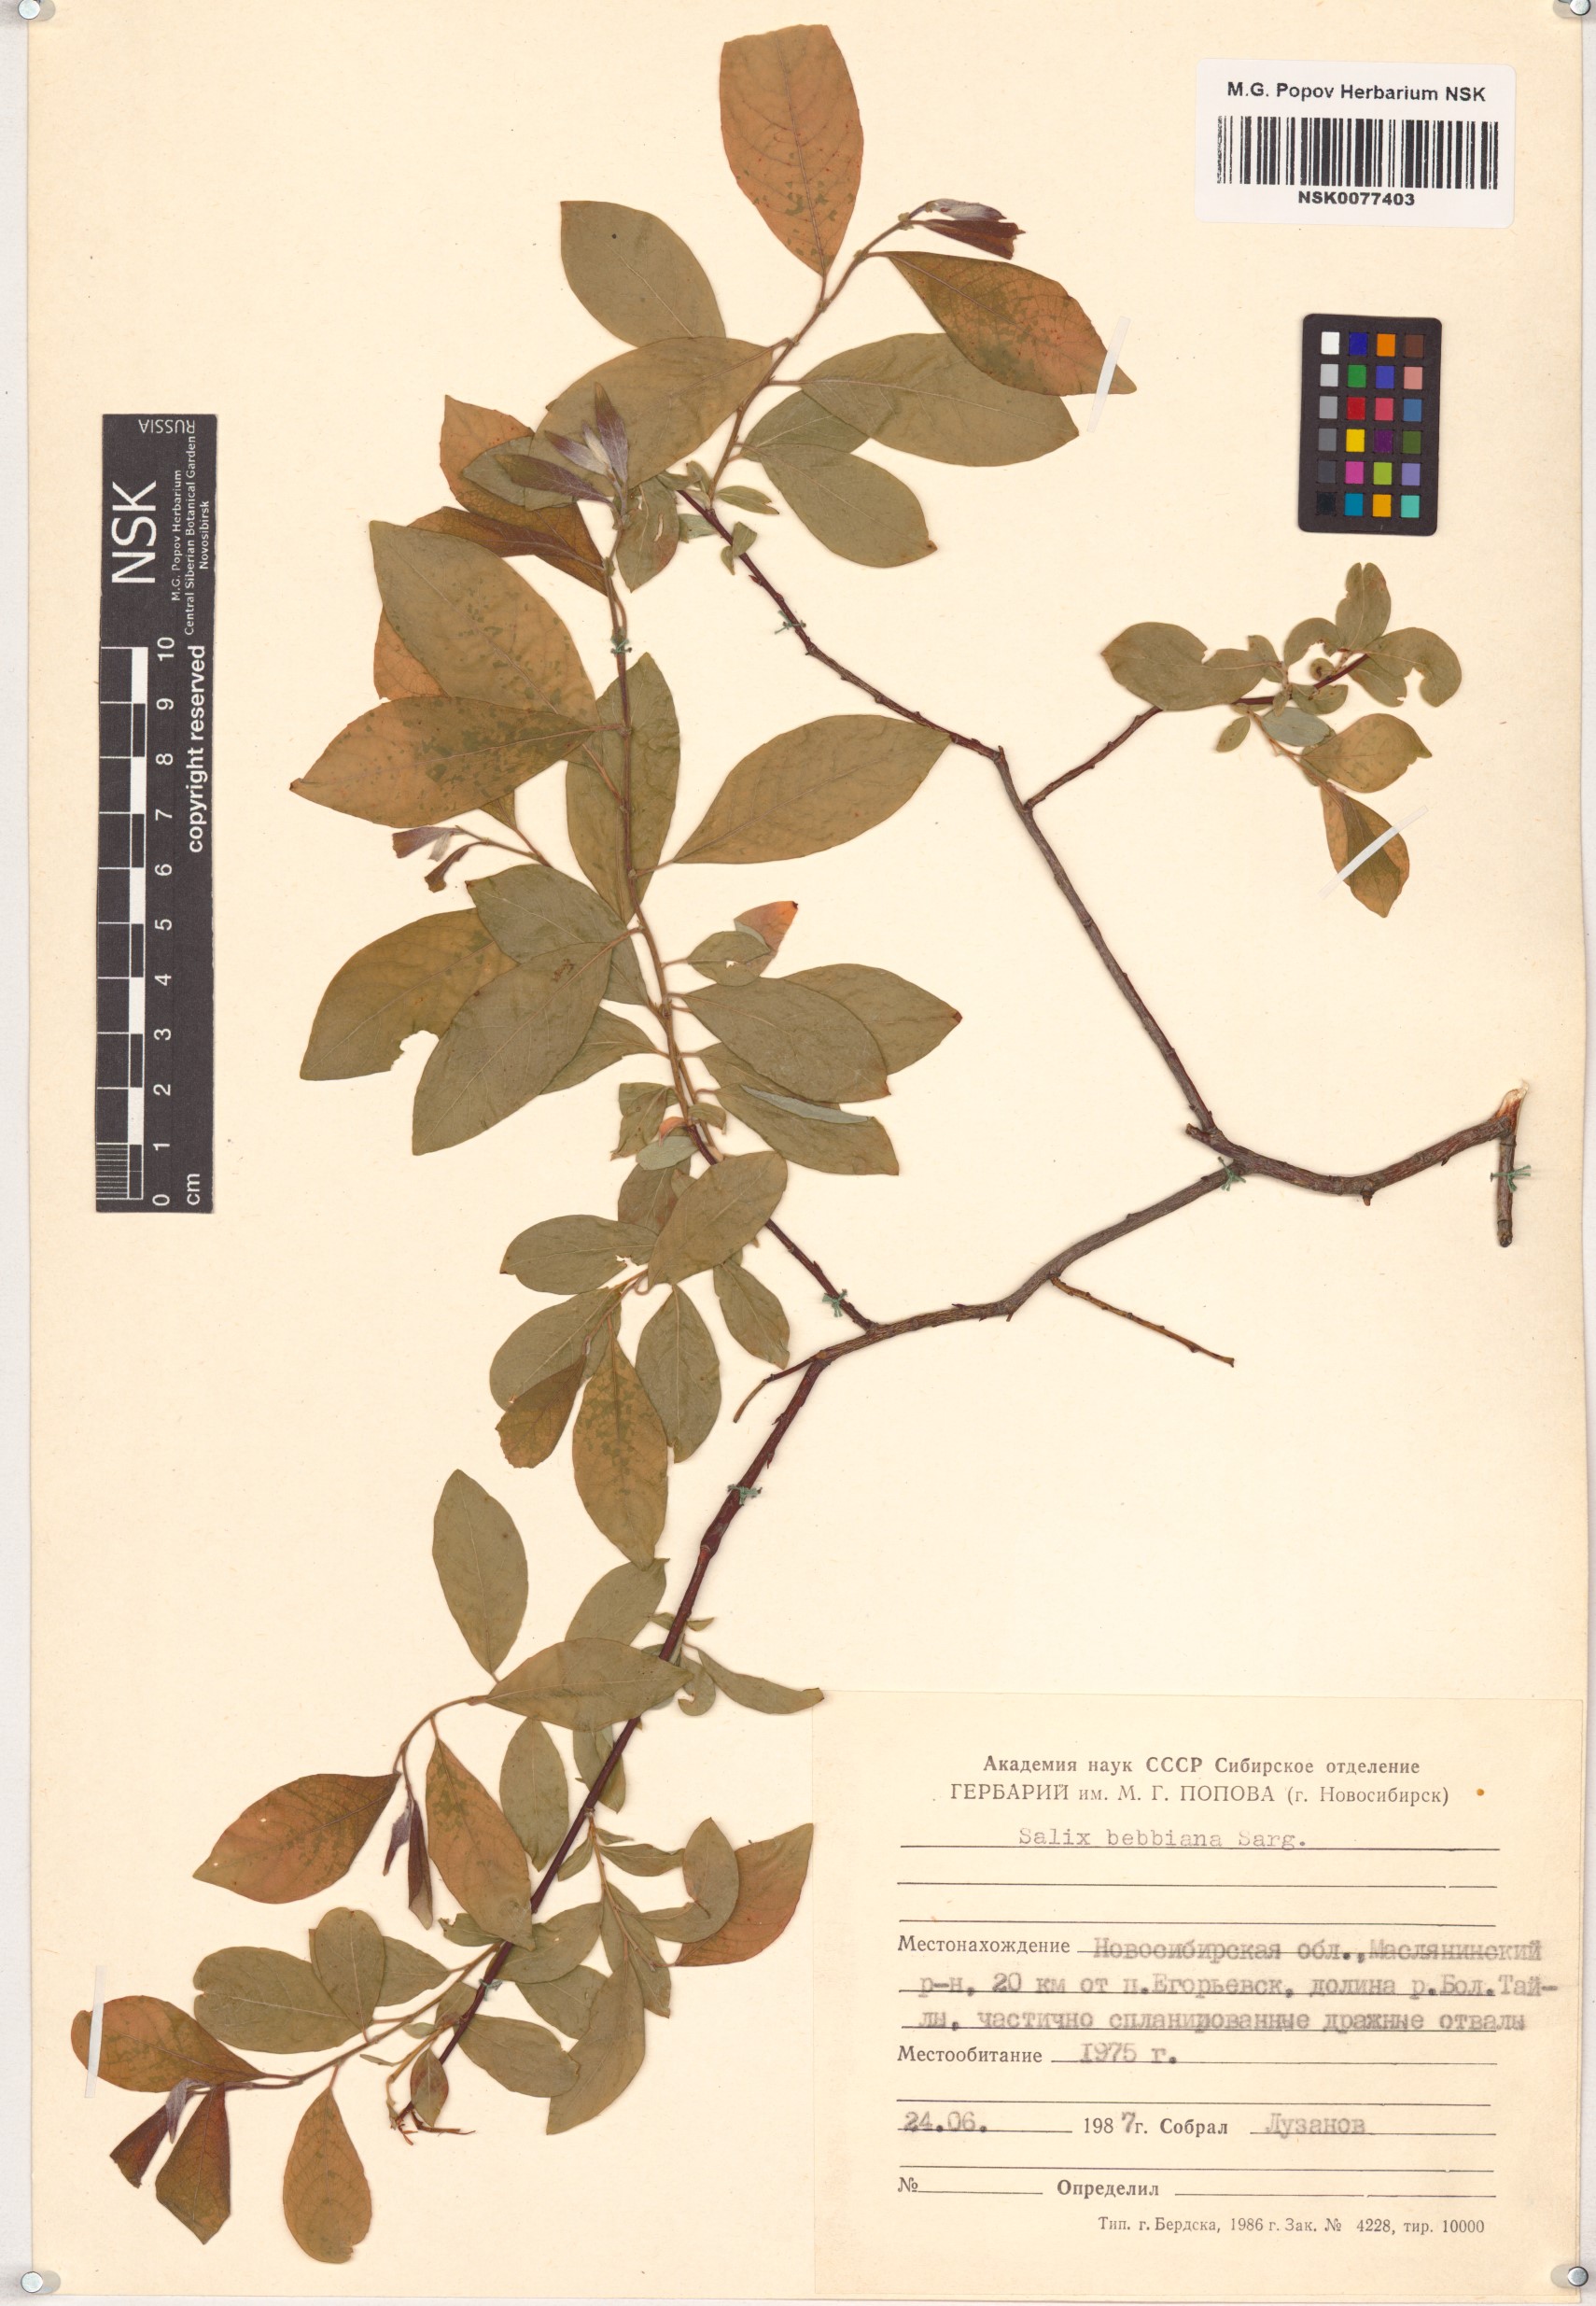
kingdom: Plantae
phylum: Tracheophyta
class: Magnoliopsida
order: Malpighiales
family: Salicaceae
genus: Salix
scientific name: Salix bebbiana
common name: Bebb's willow
